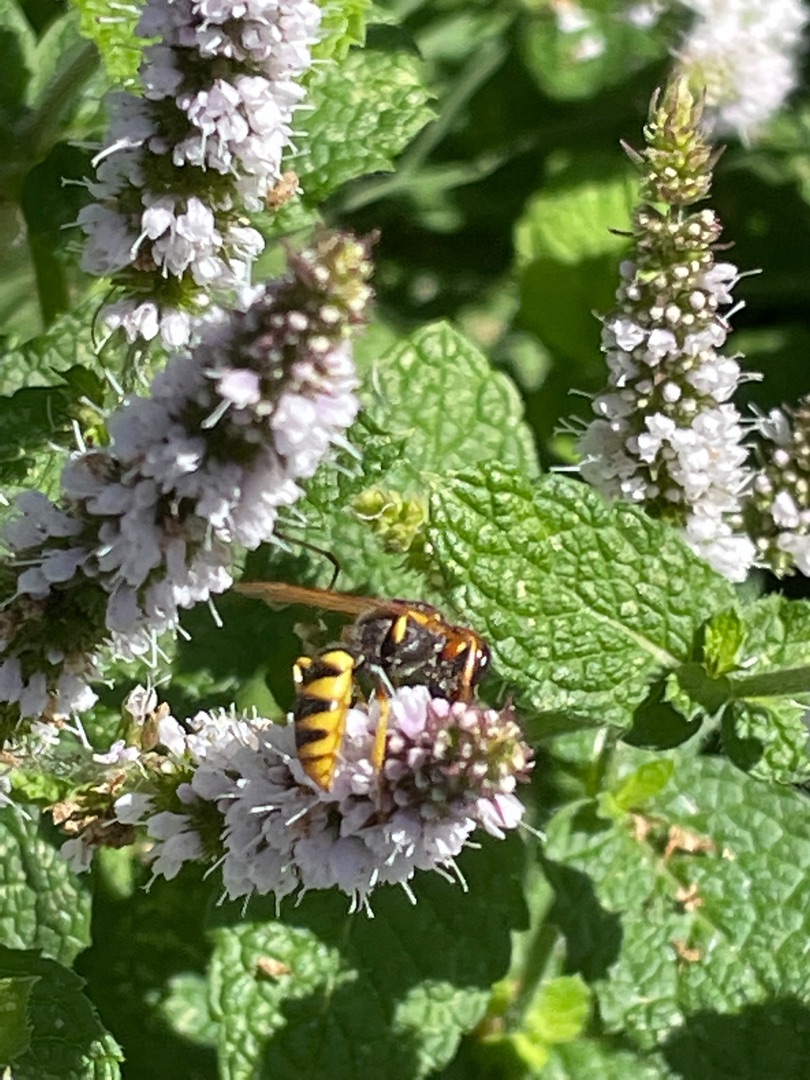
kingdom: Animalia
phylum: Arthropoda
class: Insecta
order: Hymenoptera
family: Crabronidae
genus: Philanthus
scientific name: Philanthus triangulum
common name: Biulv
